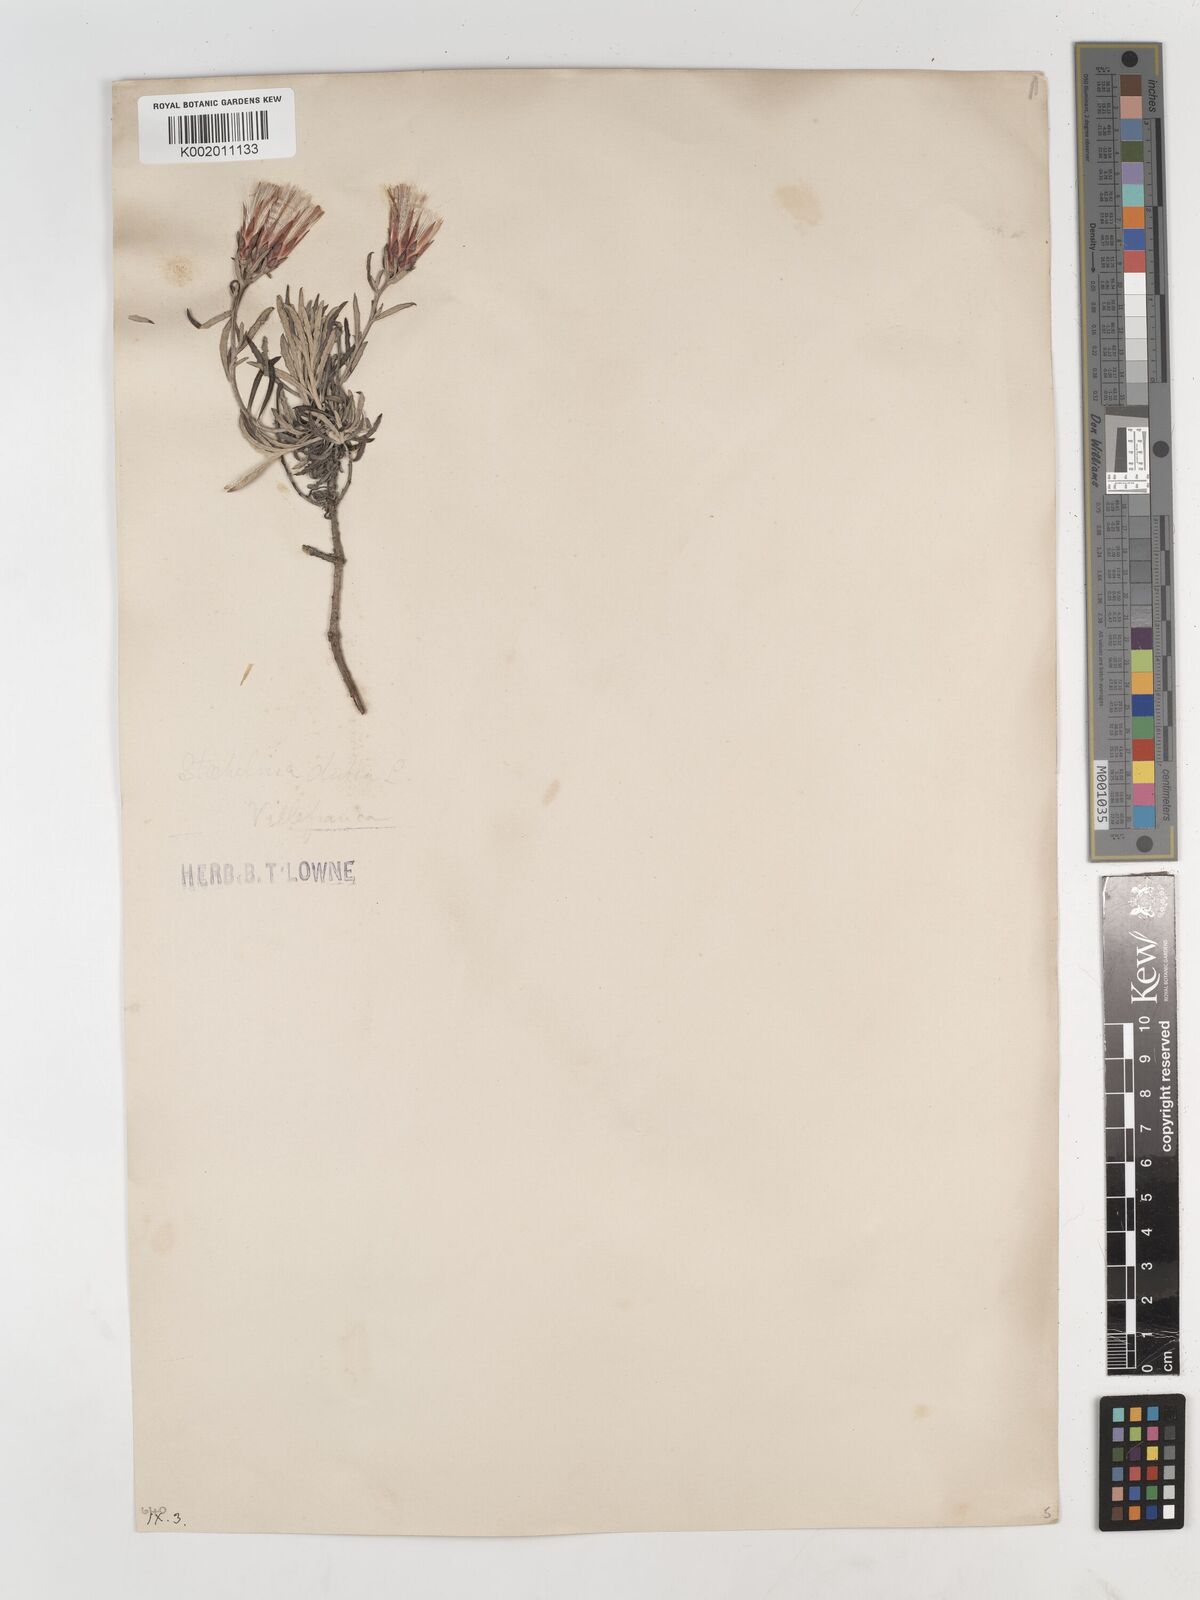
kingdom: Plantae
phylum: Tracheophyta
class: Magnoliopsida
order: Asterales
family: Asteraceae
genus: Staehelina
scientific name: Staehelina dubia
